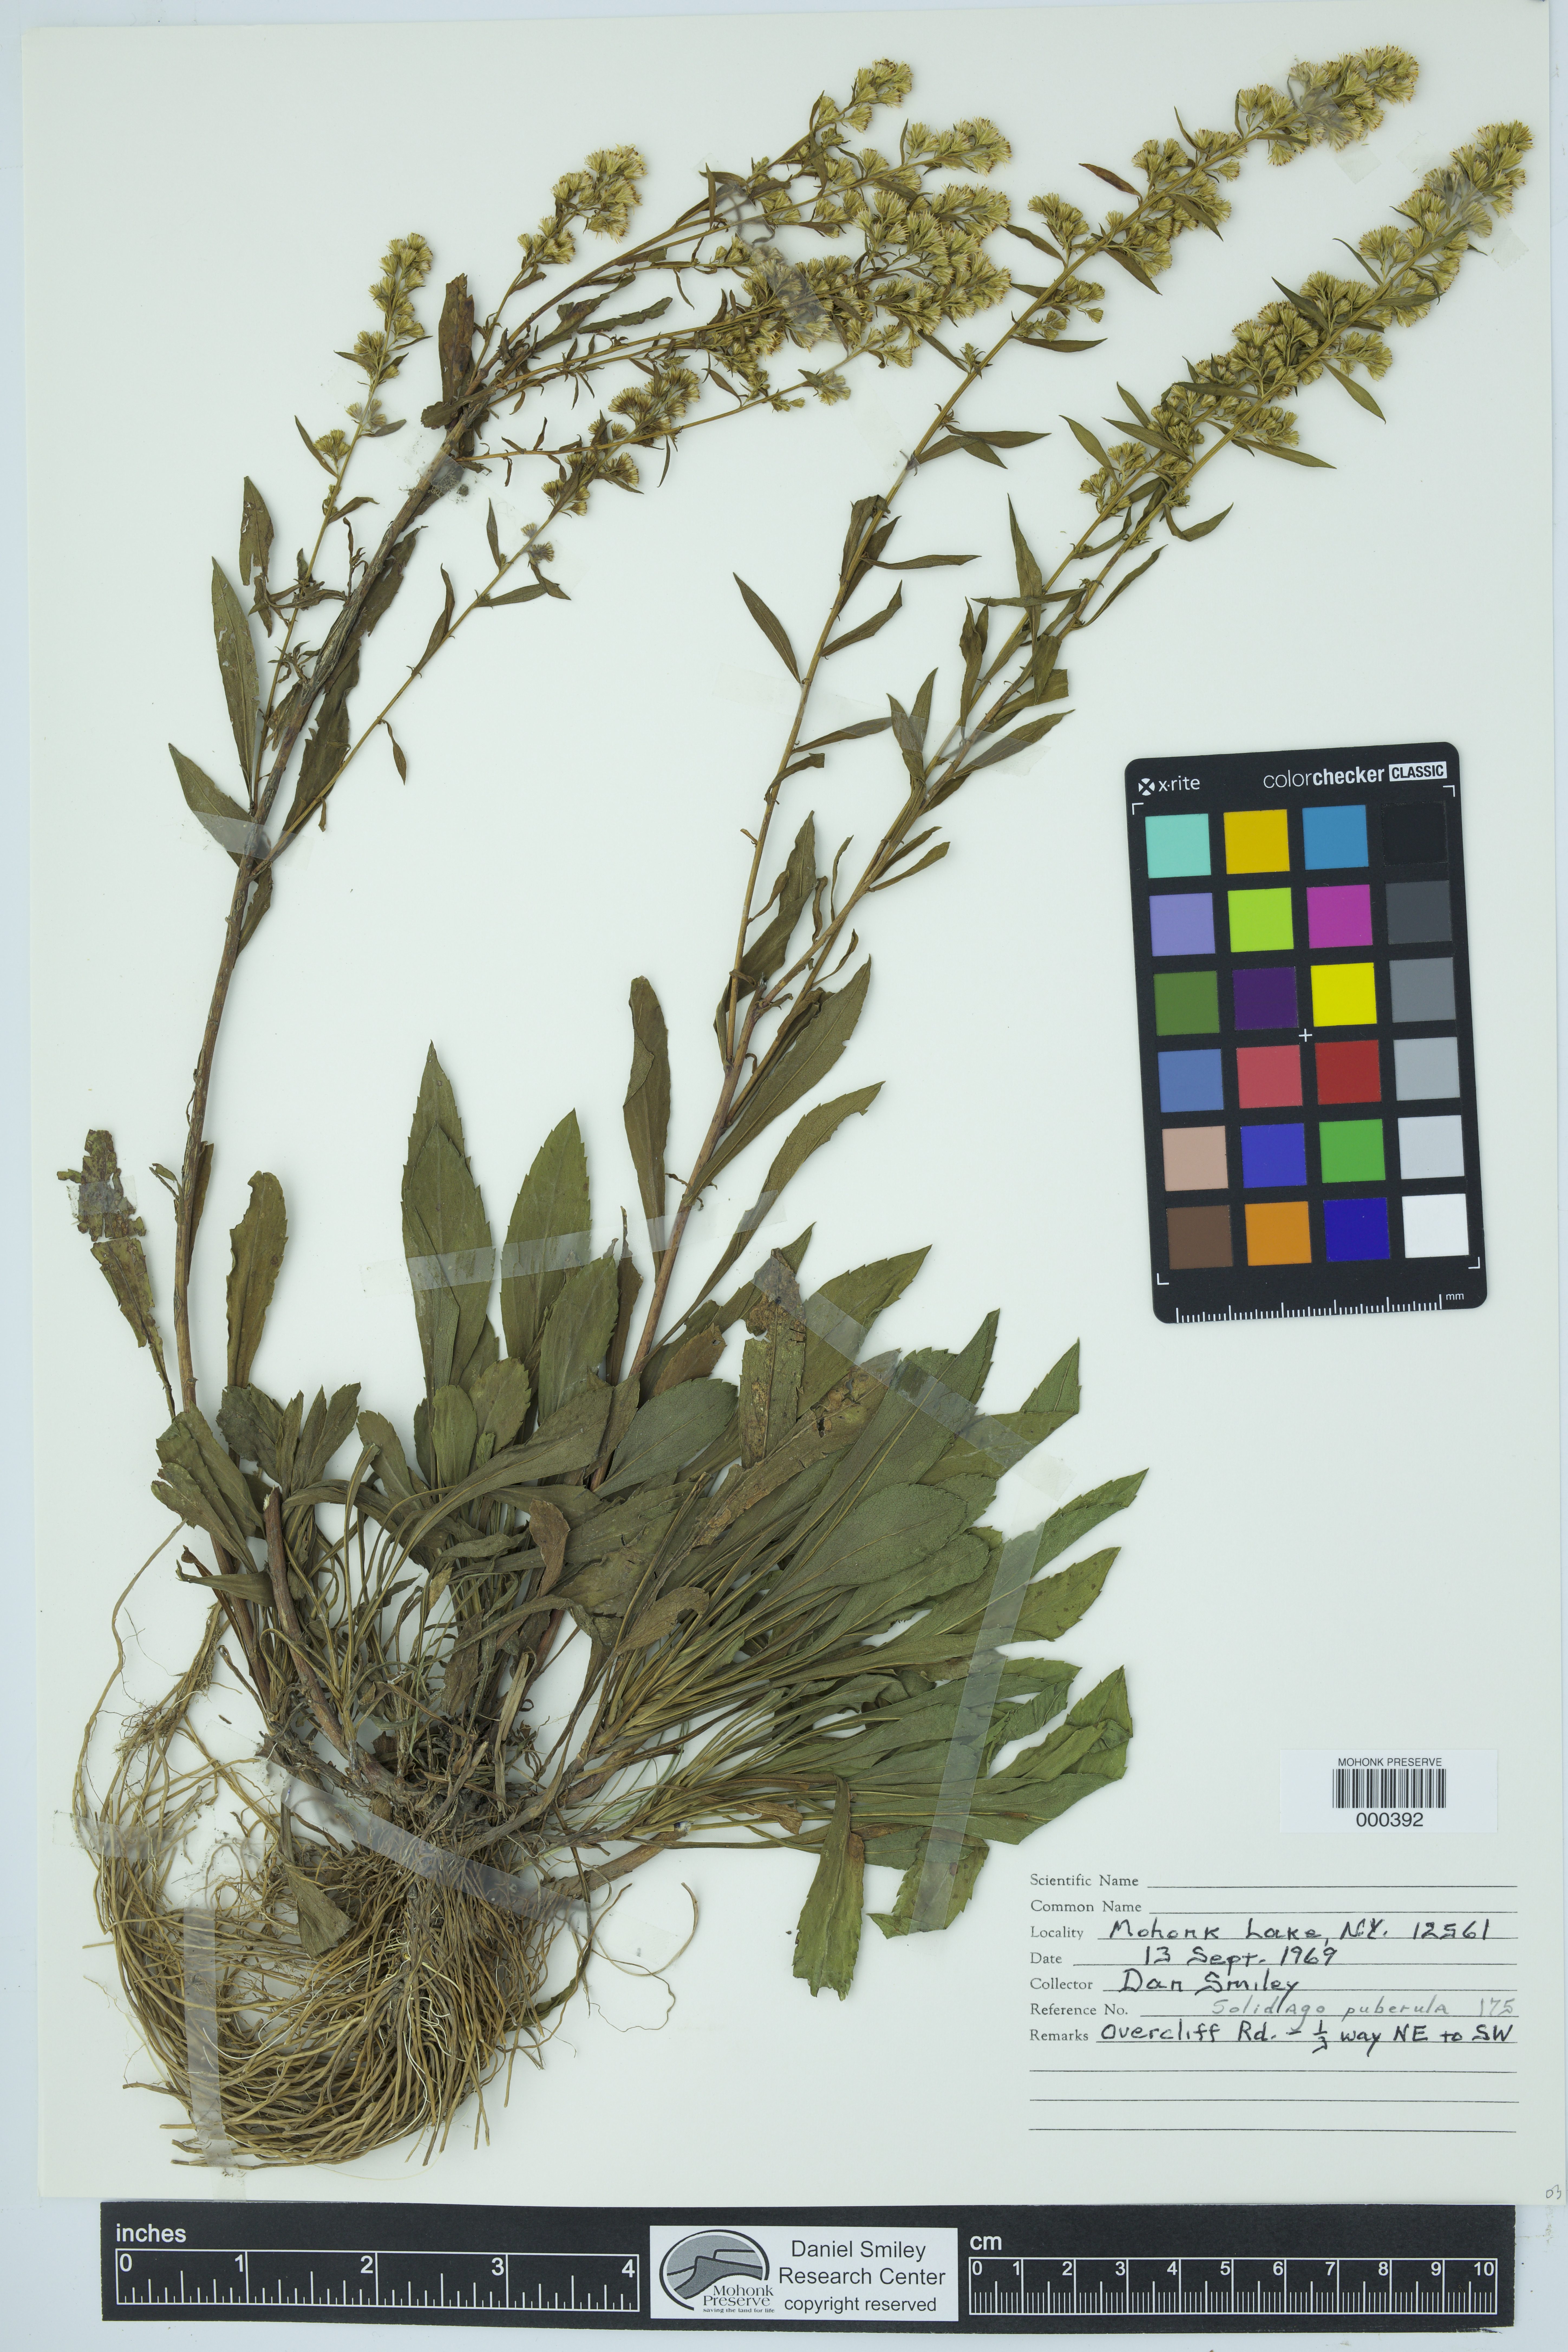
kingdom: Plantae
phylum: Tracheophyta
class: Magnoliopsida
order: Asterales
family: Asteraceae
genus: Solidago
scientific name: Solidago puberula
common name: Downy goldenrod
